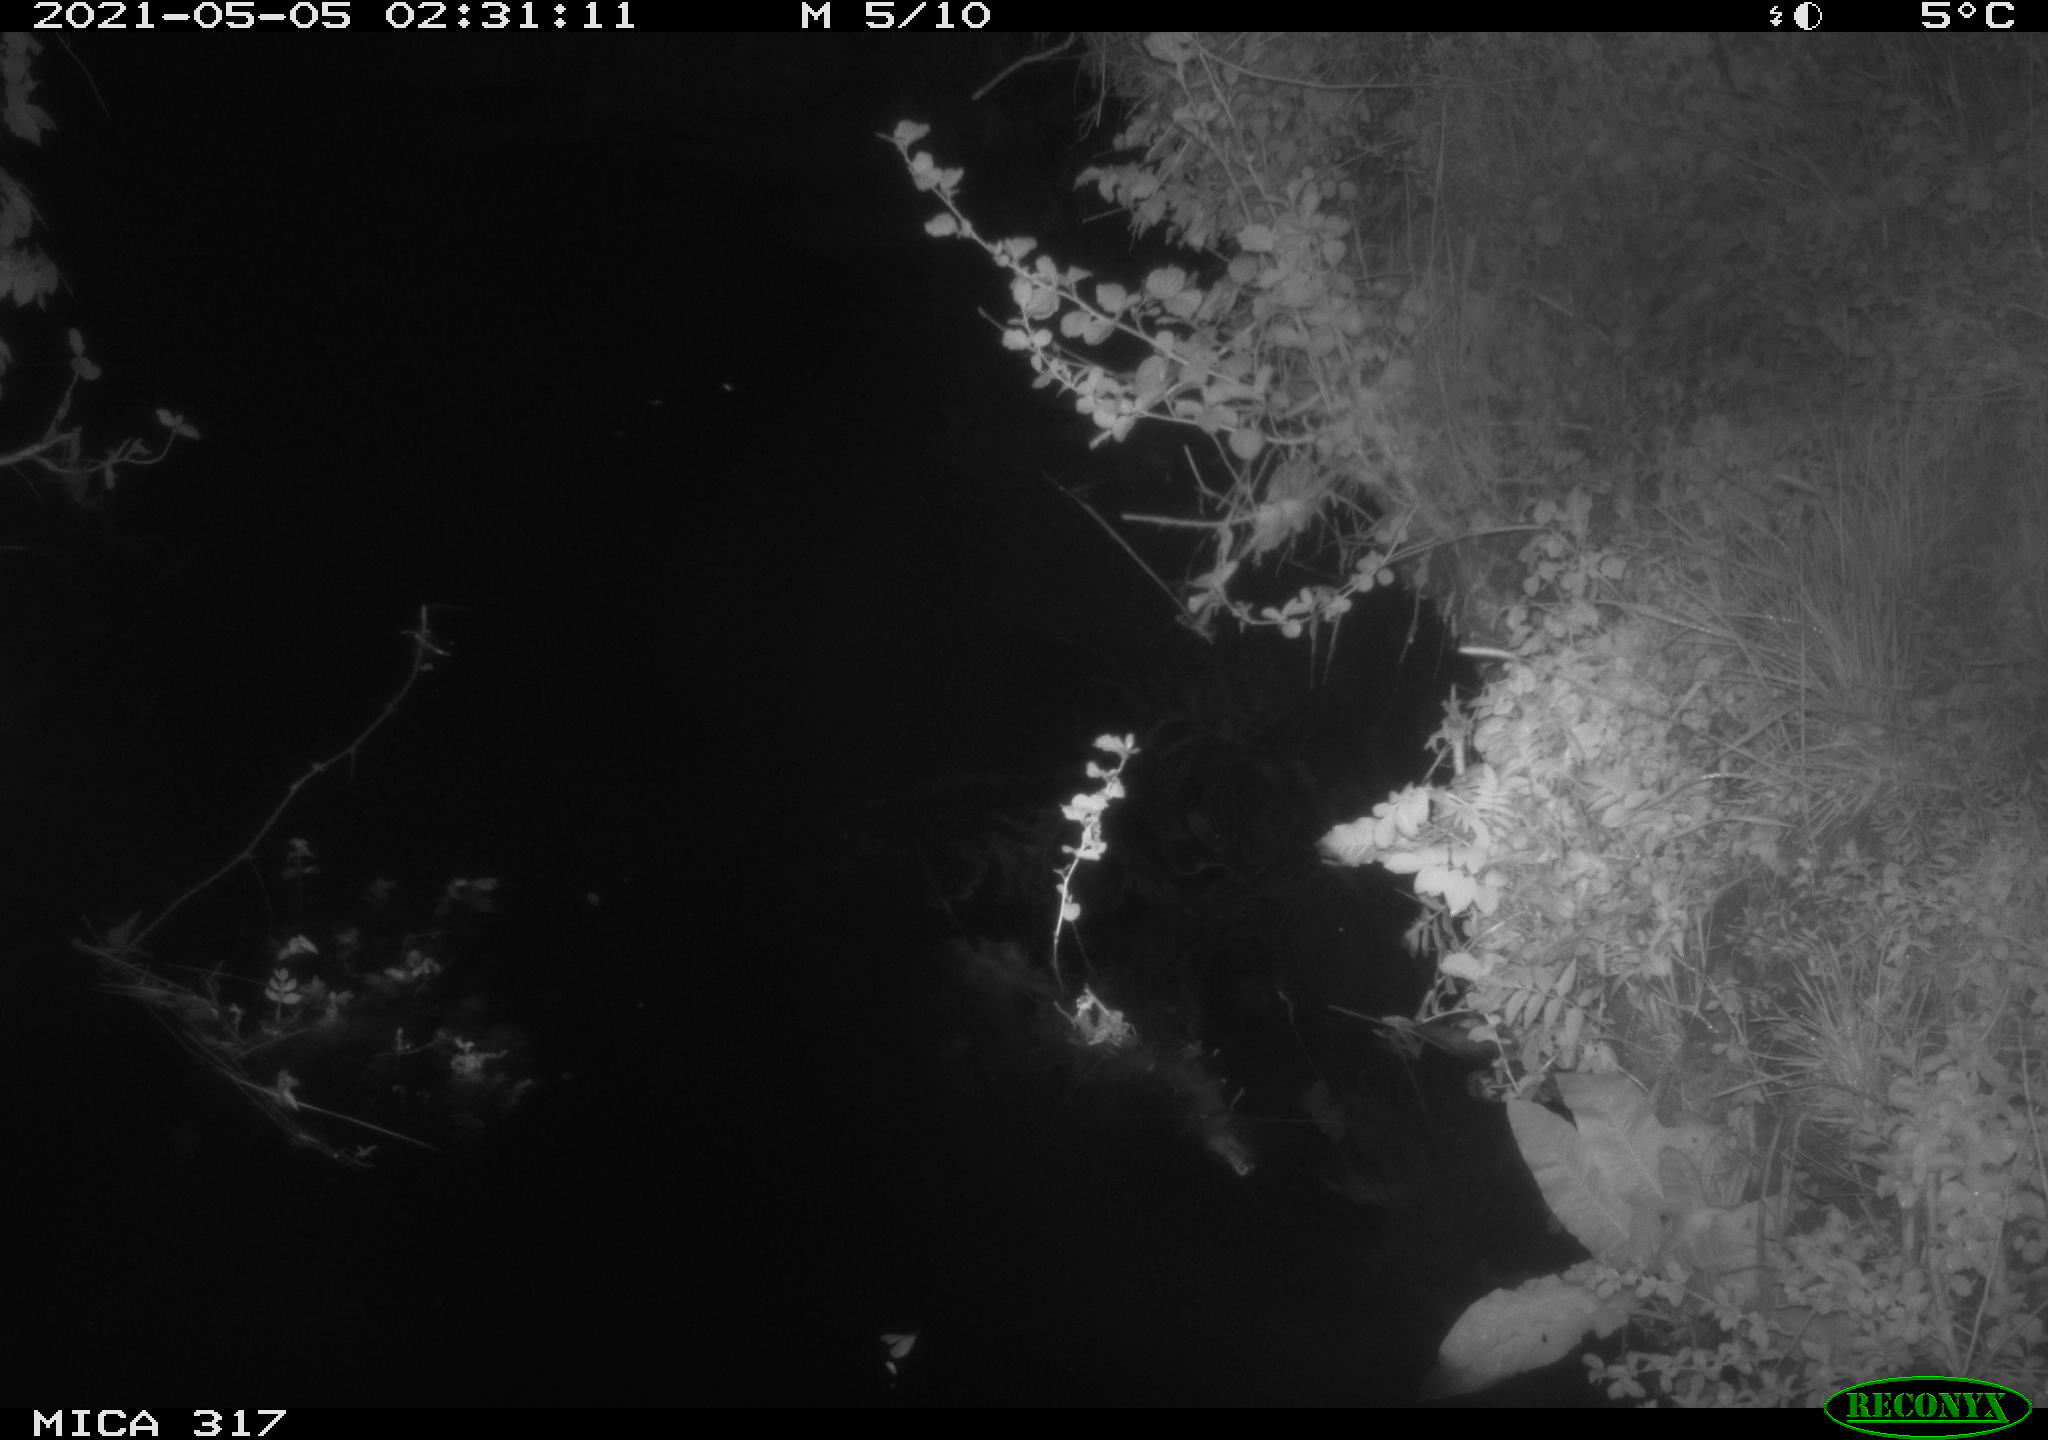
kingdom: Animalia
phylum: Chordata
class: Aves
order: Anseriformes
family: Anatidae
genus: Anas
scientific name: Anas
